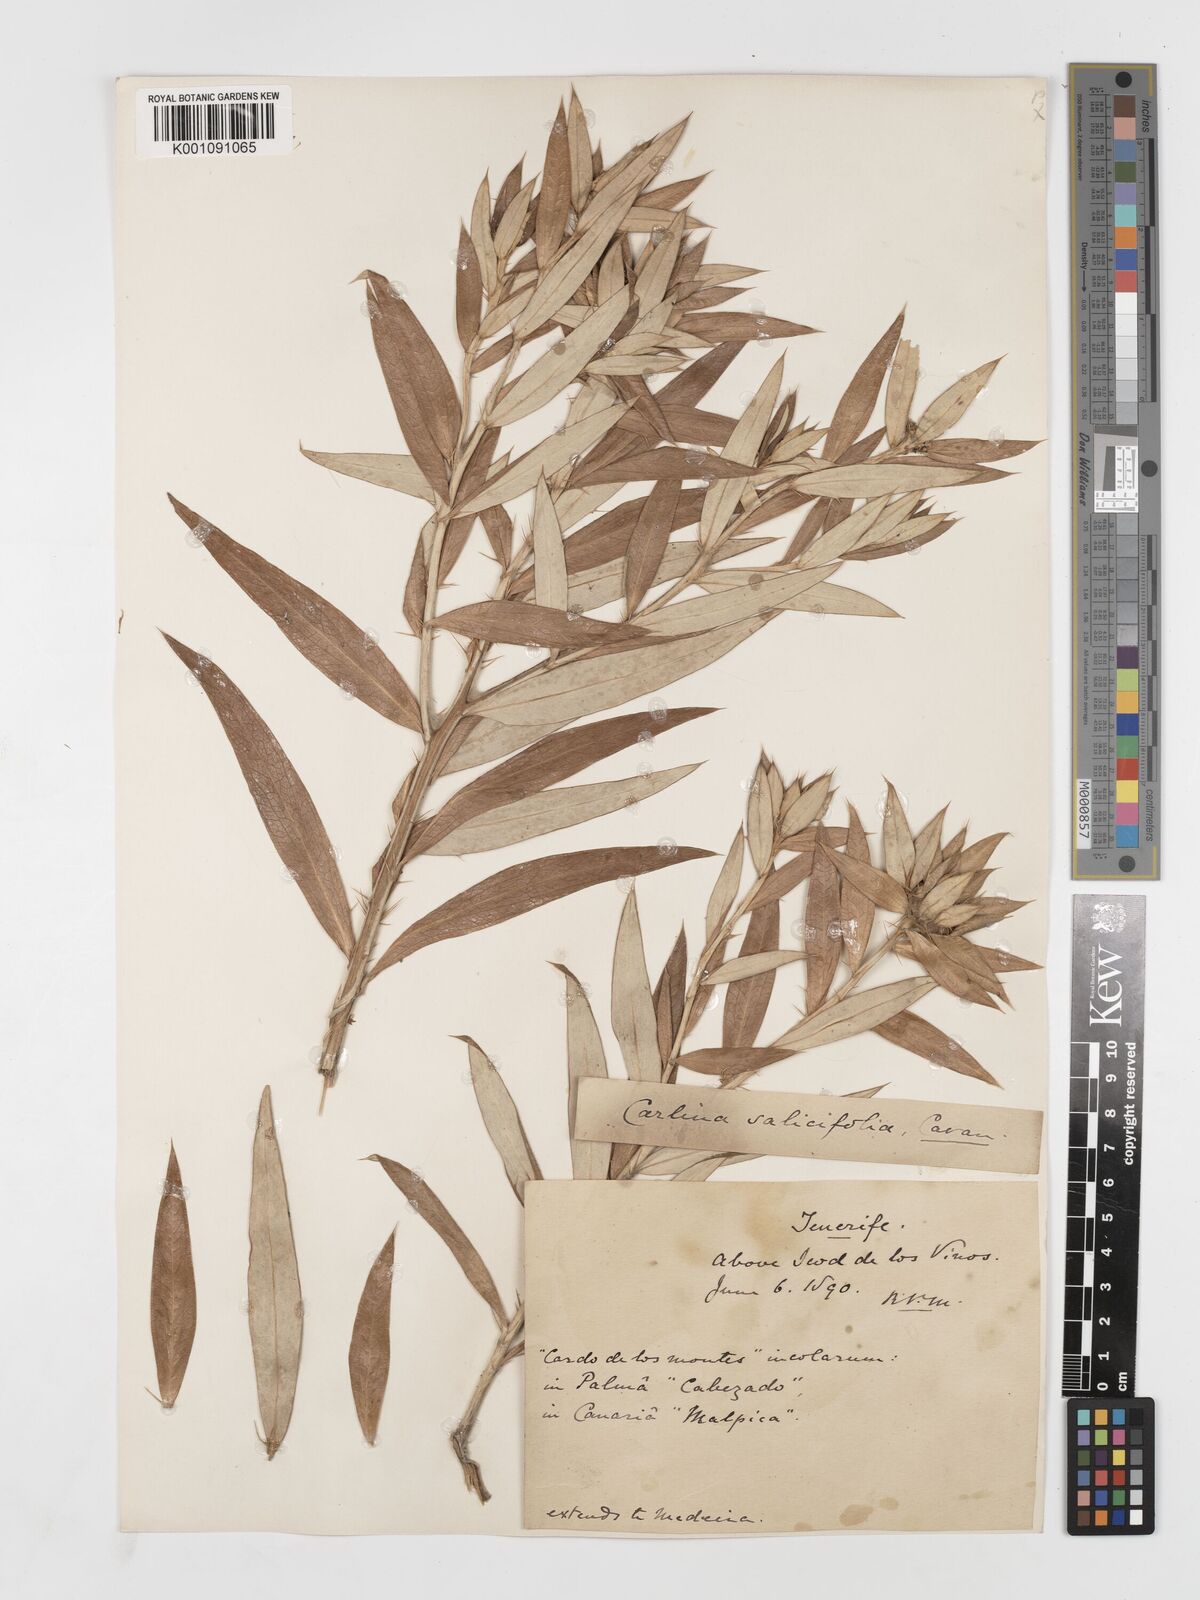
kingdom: Plantae
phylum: Tracheophyta
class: Magnoliopsida
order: Asterales
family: Asteraceae
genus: Carlina
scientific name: Carlina salicifolia
